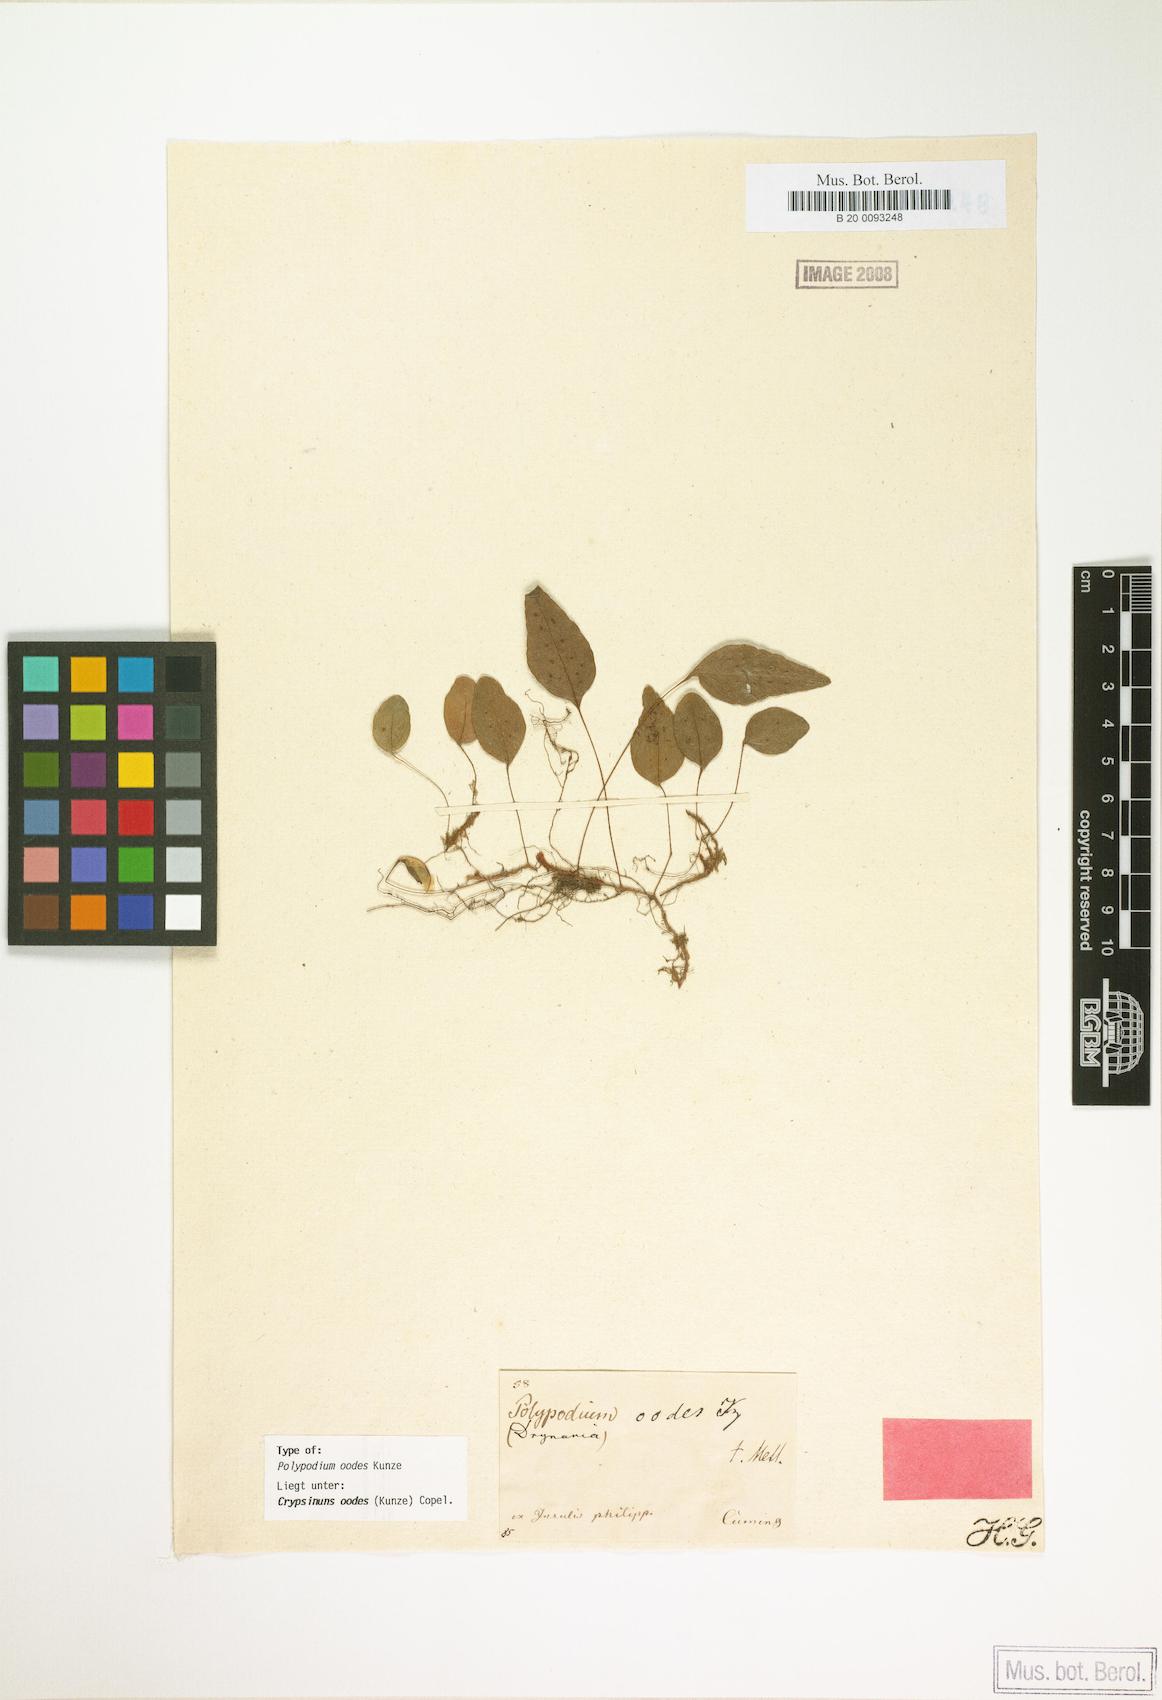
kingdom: Plantae
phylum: Tracheophyta
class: Polypodiopsida
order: Polypodiales
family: Polypodiaceae
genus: Selliguea
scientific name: Selliguea oodes
